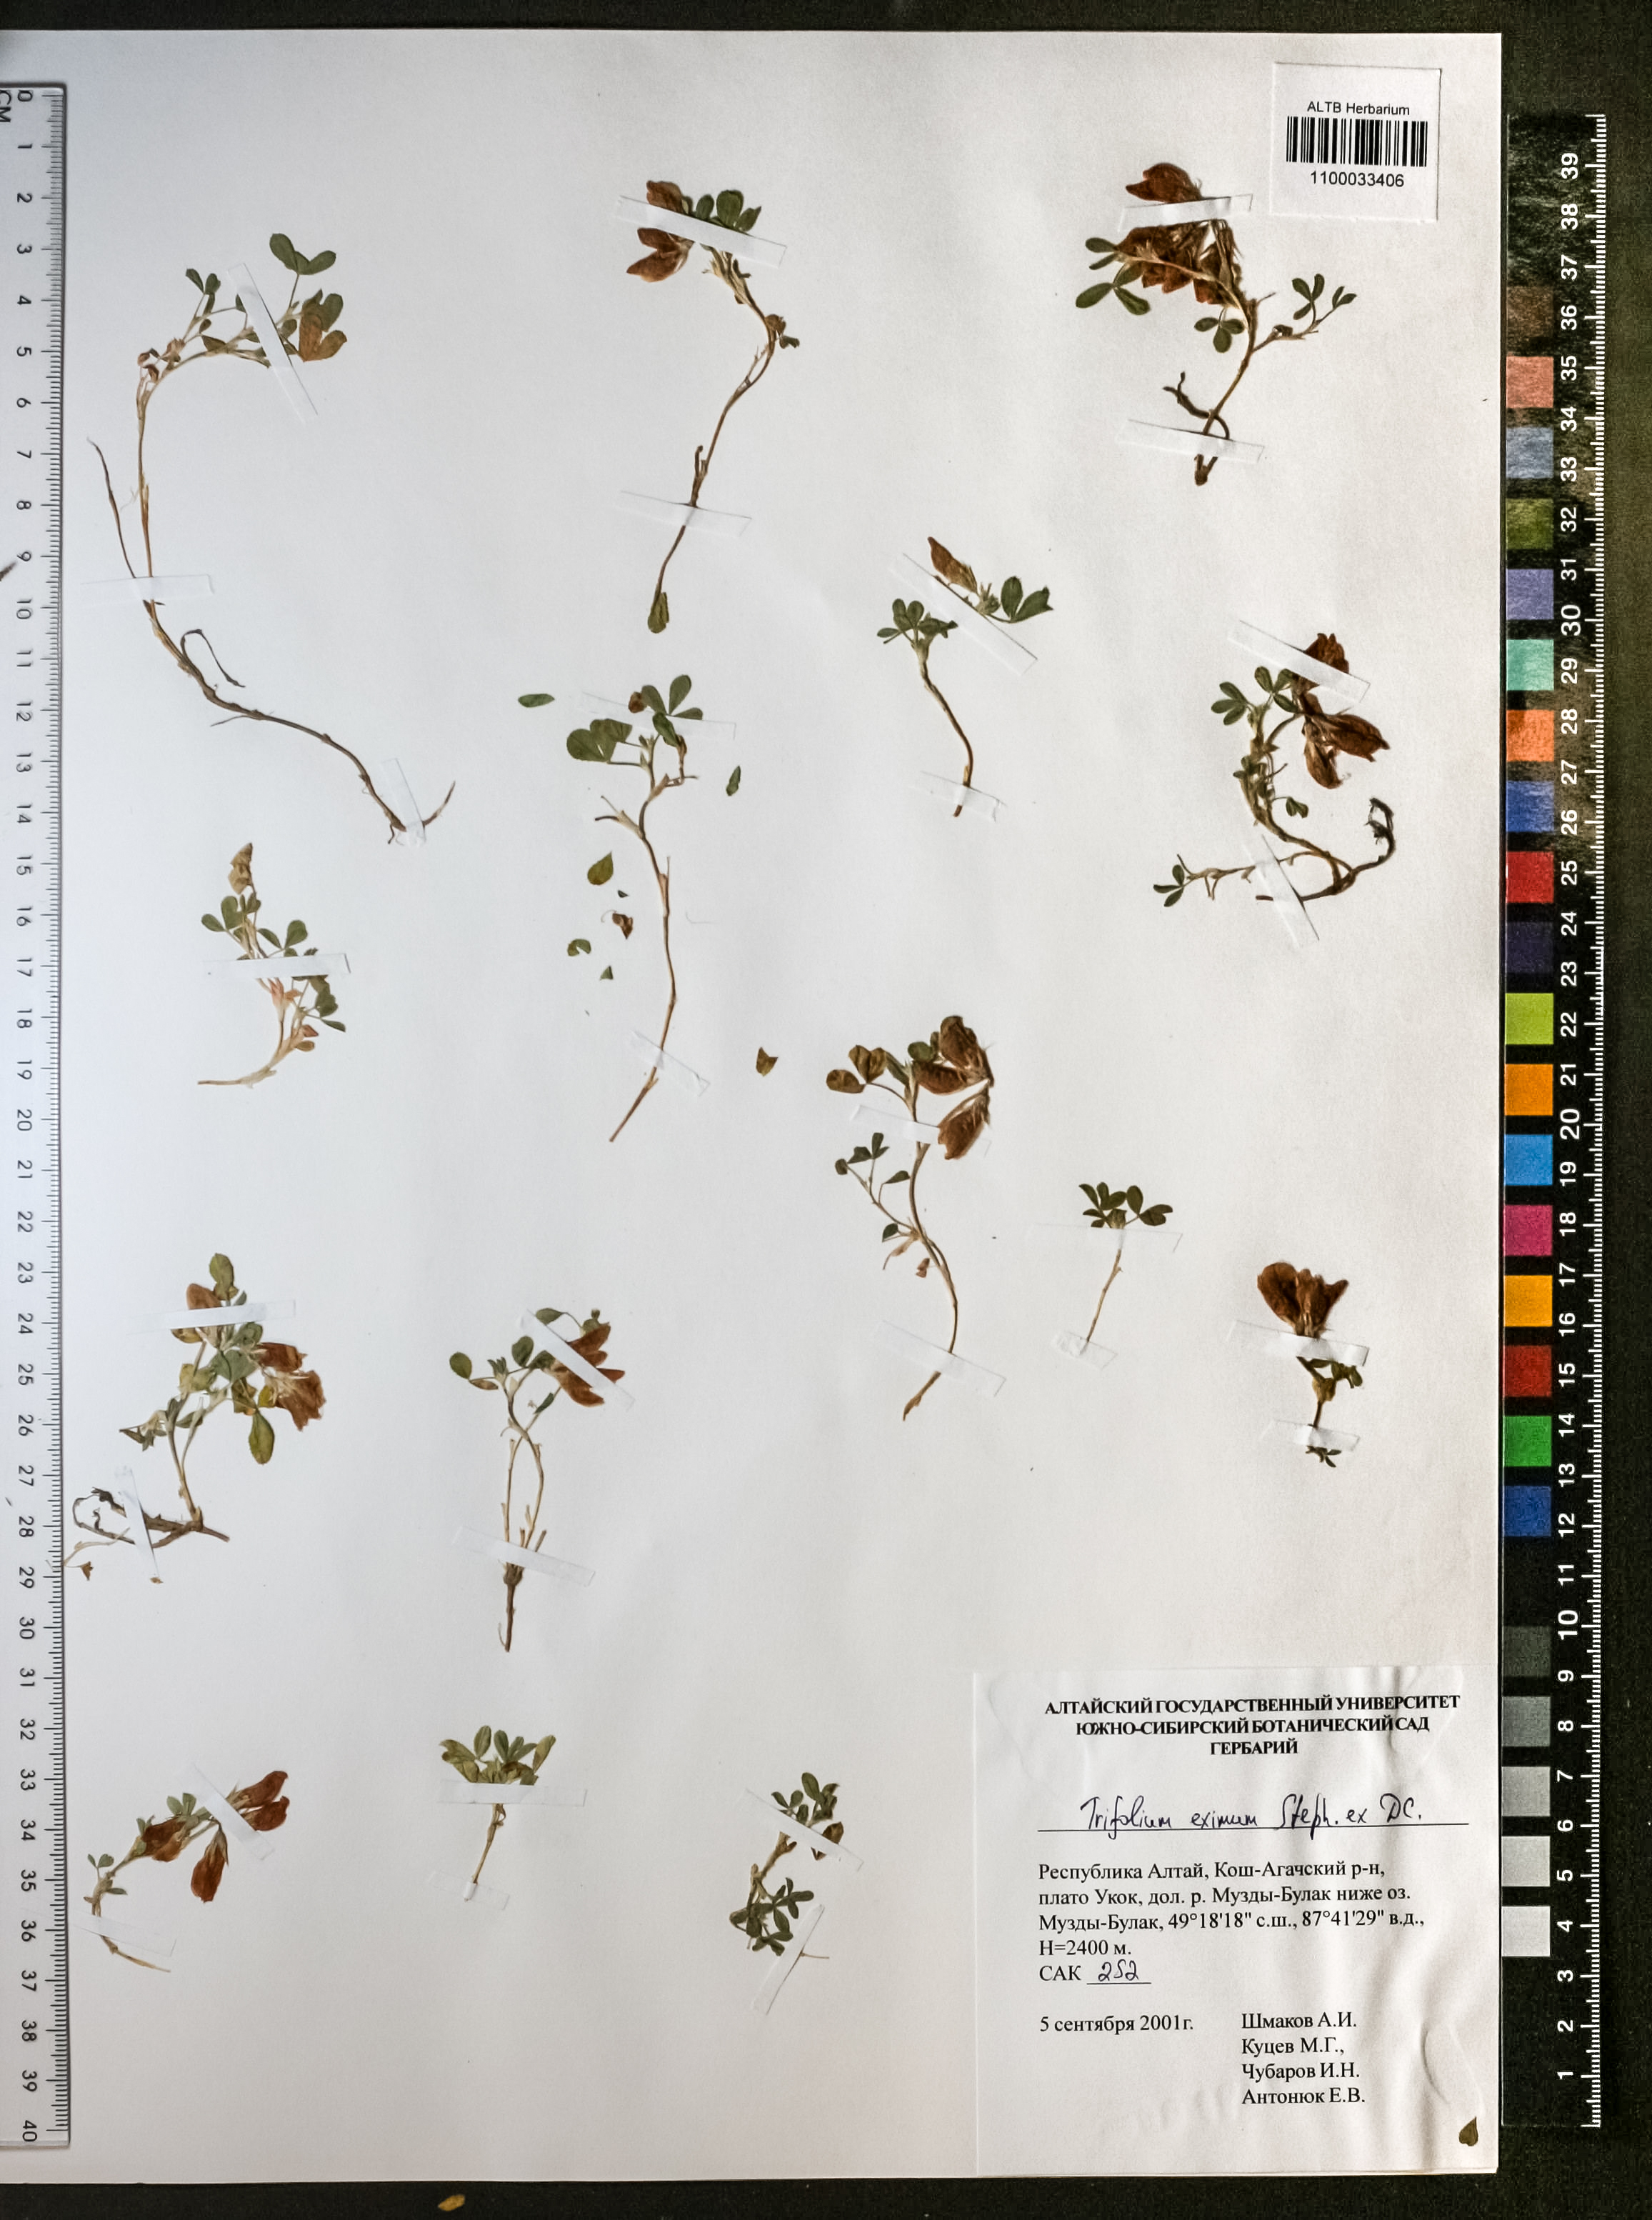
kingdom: Plantae
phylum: Tracheophyta
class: Magnoliopsida
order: Fabales
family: Fabaceae
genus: Trifolium
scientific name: Trifolium eximium
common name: Excellent clover
